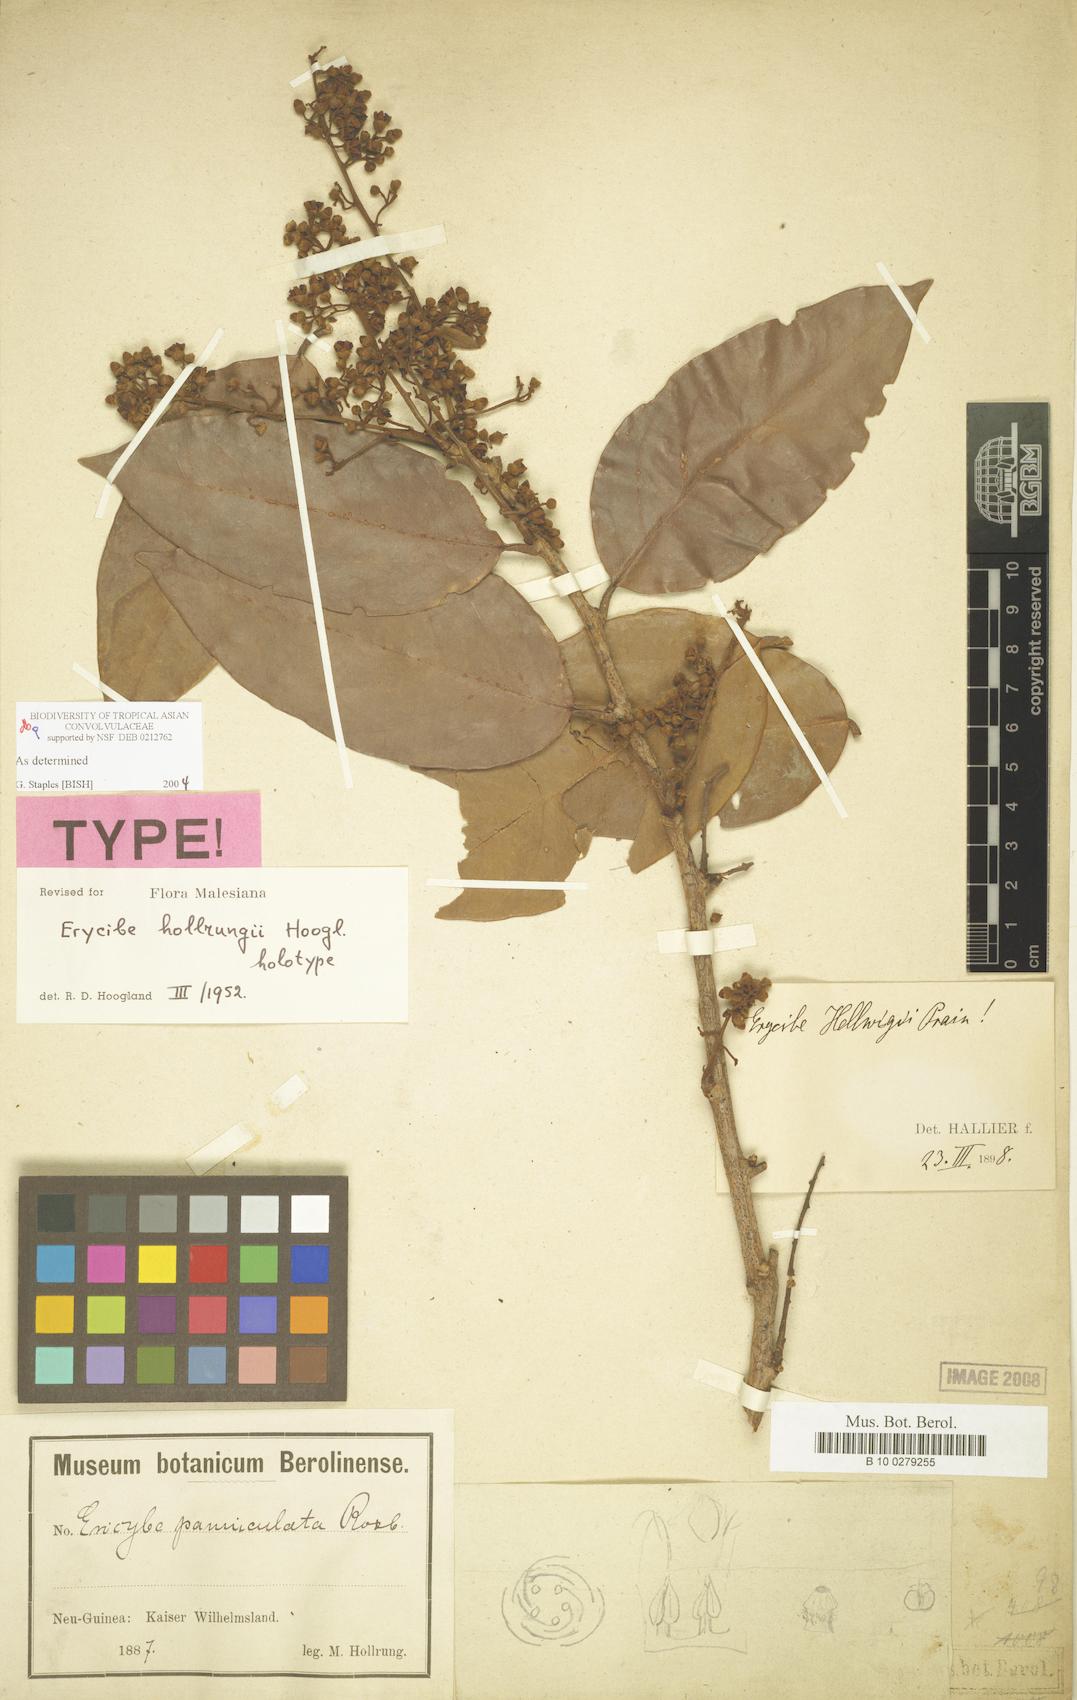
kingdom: Plantae
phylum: Tracheophyta
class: Magnoliopsida
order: Solanales
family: Convolvulaceae
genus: Erycibe
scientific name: Erycibe hollrungii
